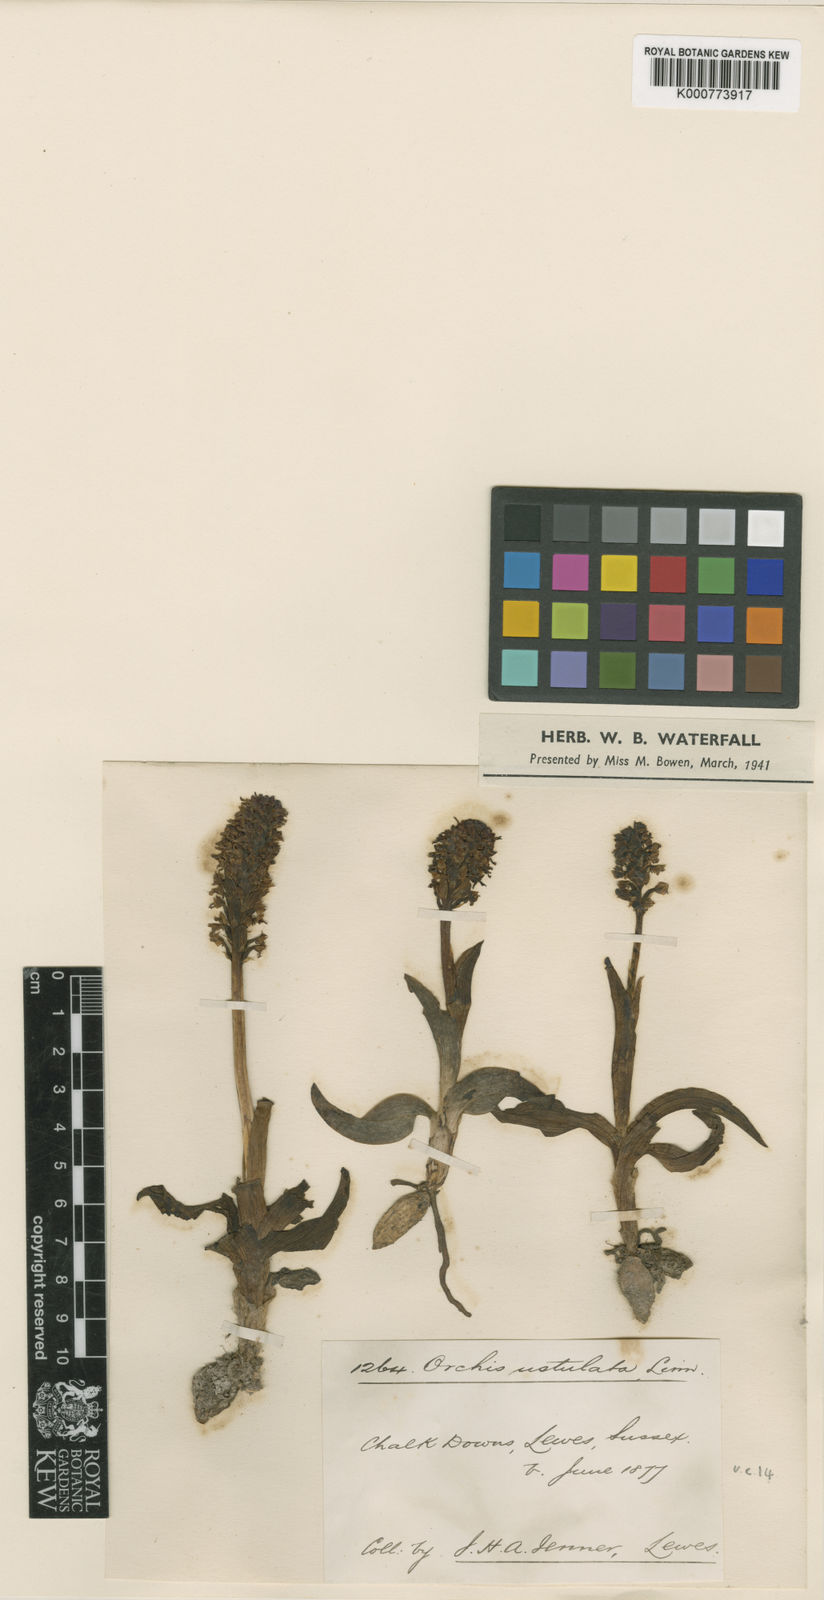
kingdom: Plantae
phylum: Tracheophyta
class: Liliopsida
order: Asparagales
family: Orchidaceae
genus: Neotinea
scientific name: Neotinea ustulata
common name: Burnt orchid
